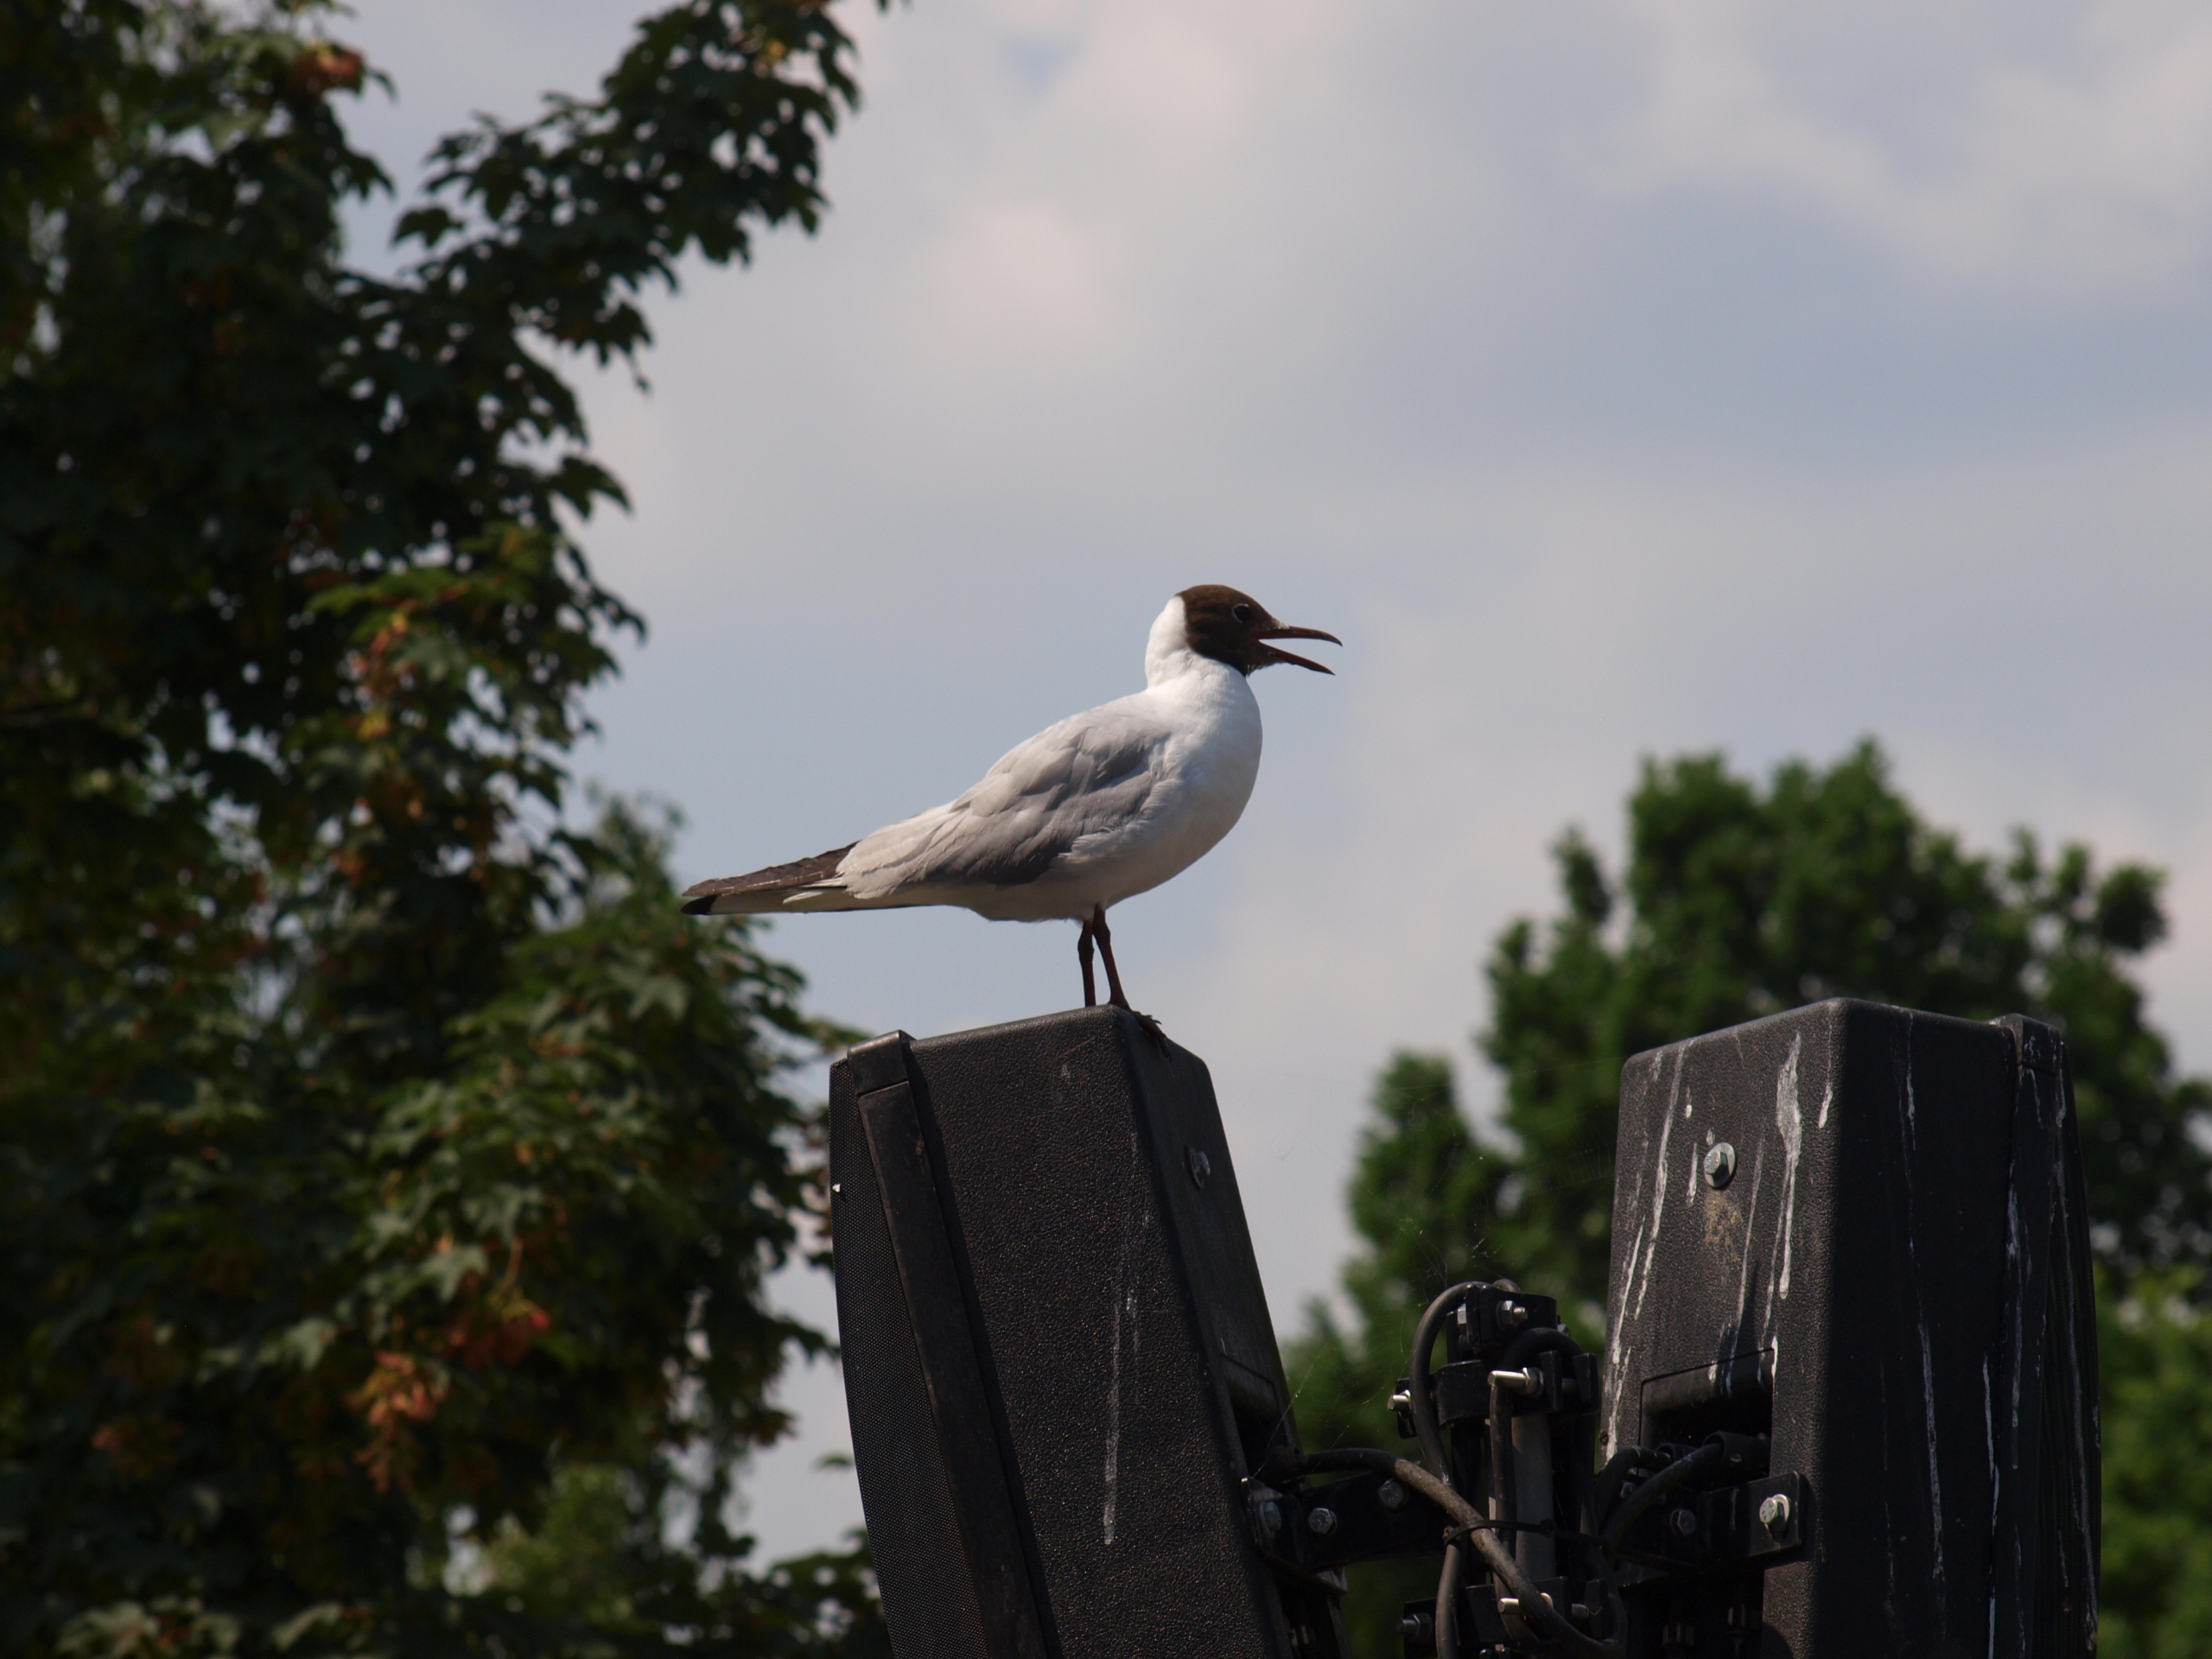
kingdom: Animalia
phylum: Chordata
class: Aves
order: Charadriiformes
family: Laridae
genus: Chroicocephalus
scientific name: Chroicocephalus ridibundus
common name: Hættemåge
